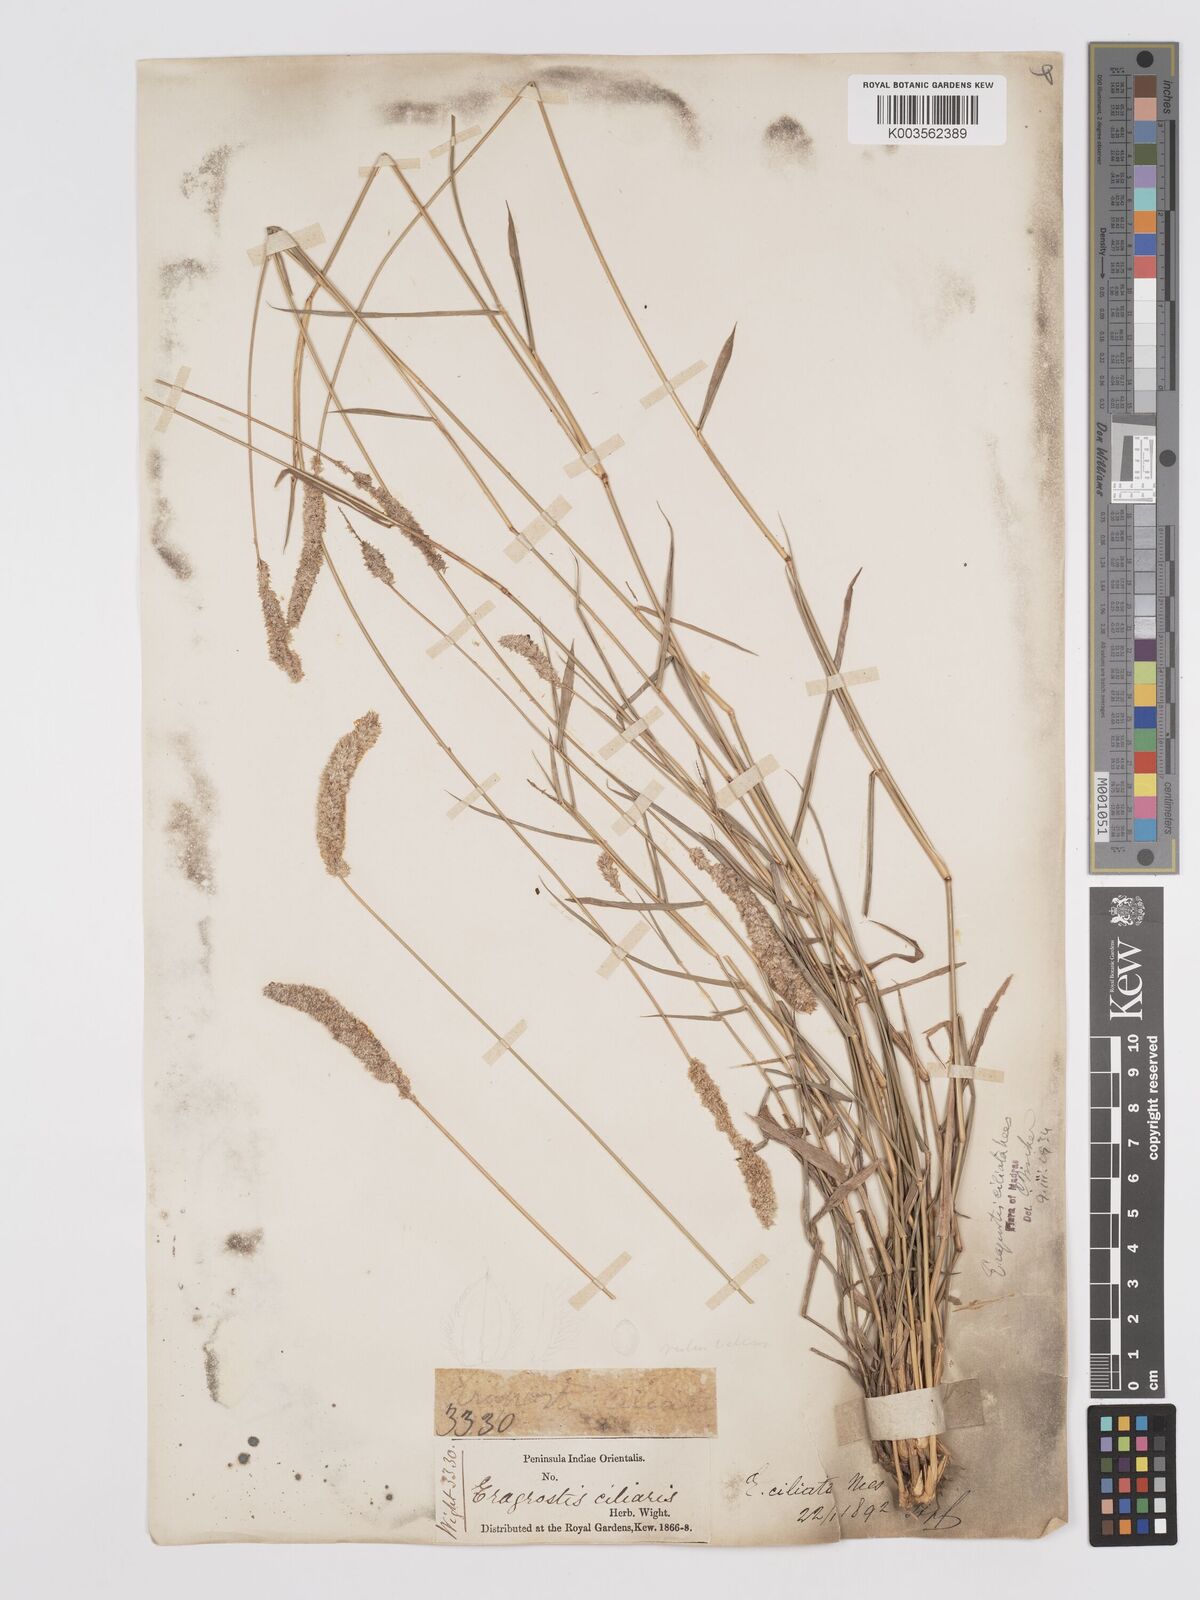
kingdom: Plantae
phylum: Tracheophyta
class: Liliopsida
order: Poales
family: Poaceae
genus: Eragrostis
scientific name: Eragrostis ciliata
